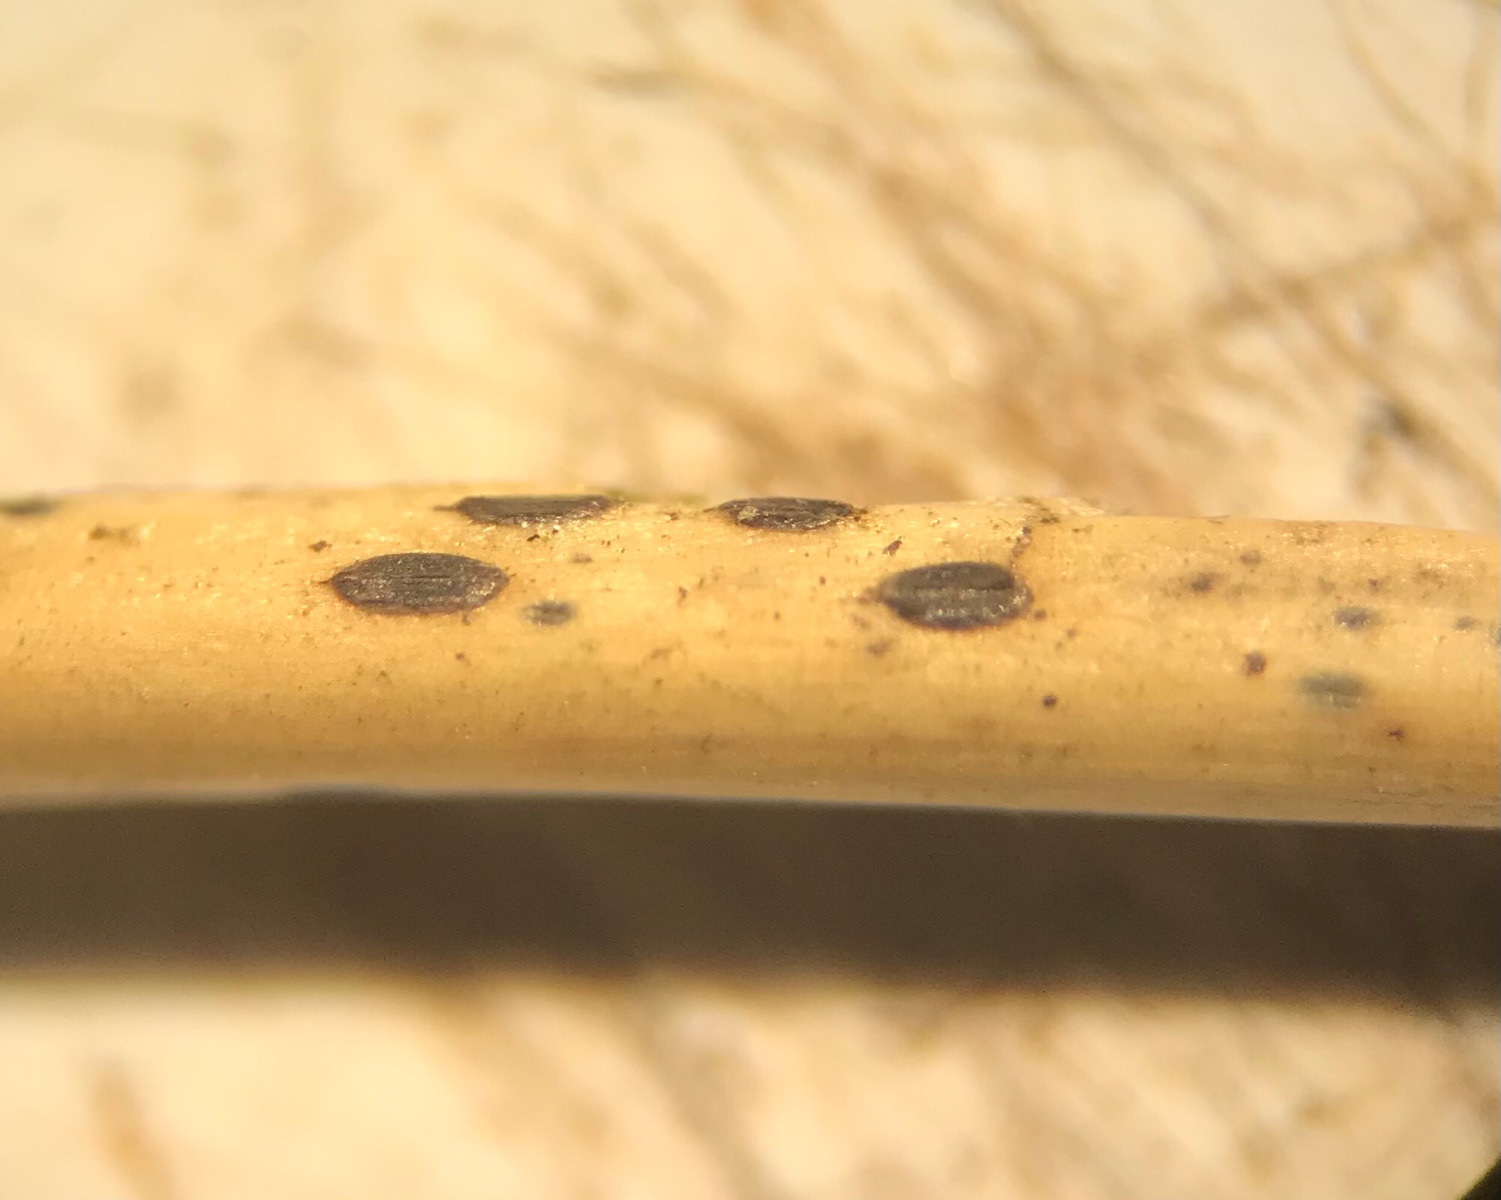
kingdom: Plantae
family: Rhytismatales
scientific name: Rhytismatales
